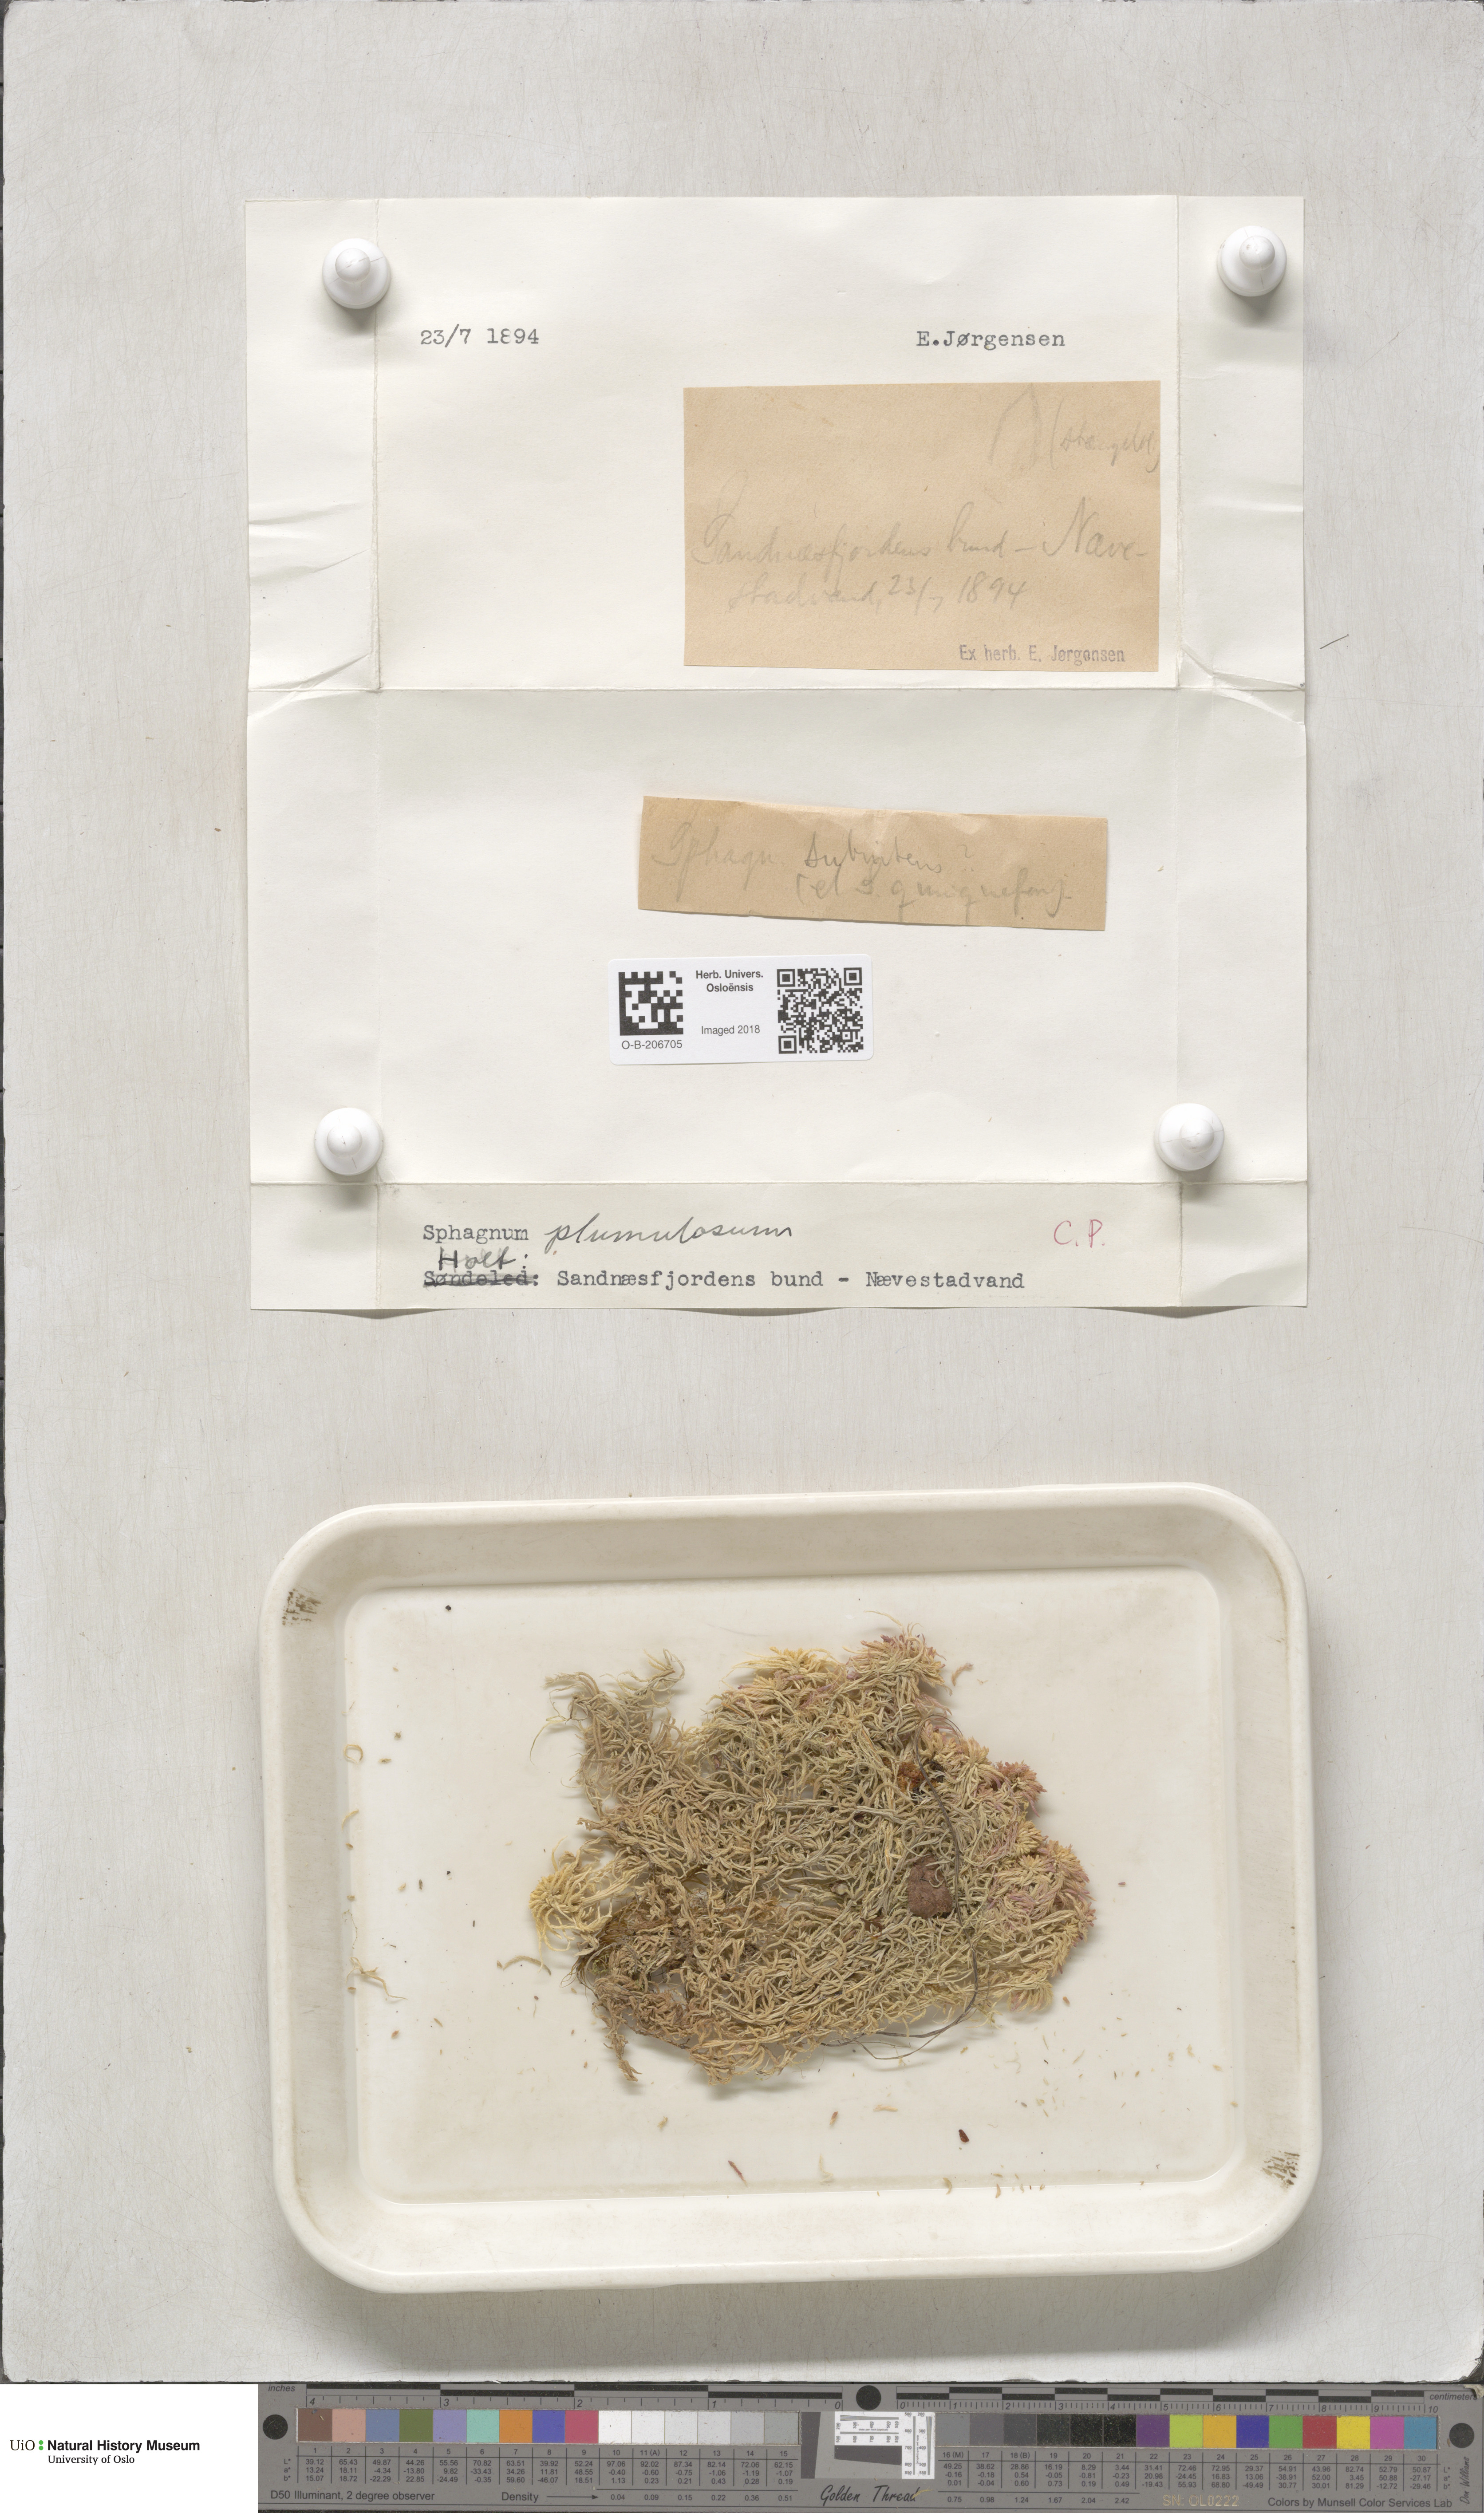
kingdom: Plantae
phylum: Bryophyta
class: Sphagnopsida
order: Sphagnales
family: Sphagnaceae
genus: Sphagnum
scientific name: Sphagnum subnitens
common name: Lustrous bog-moss
